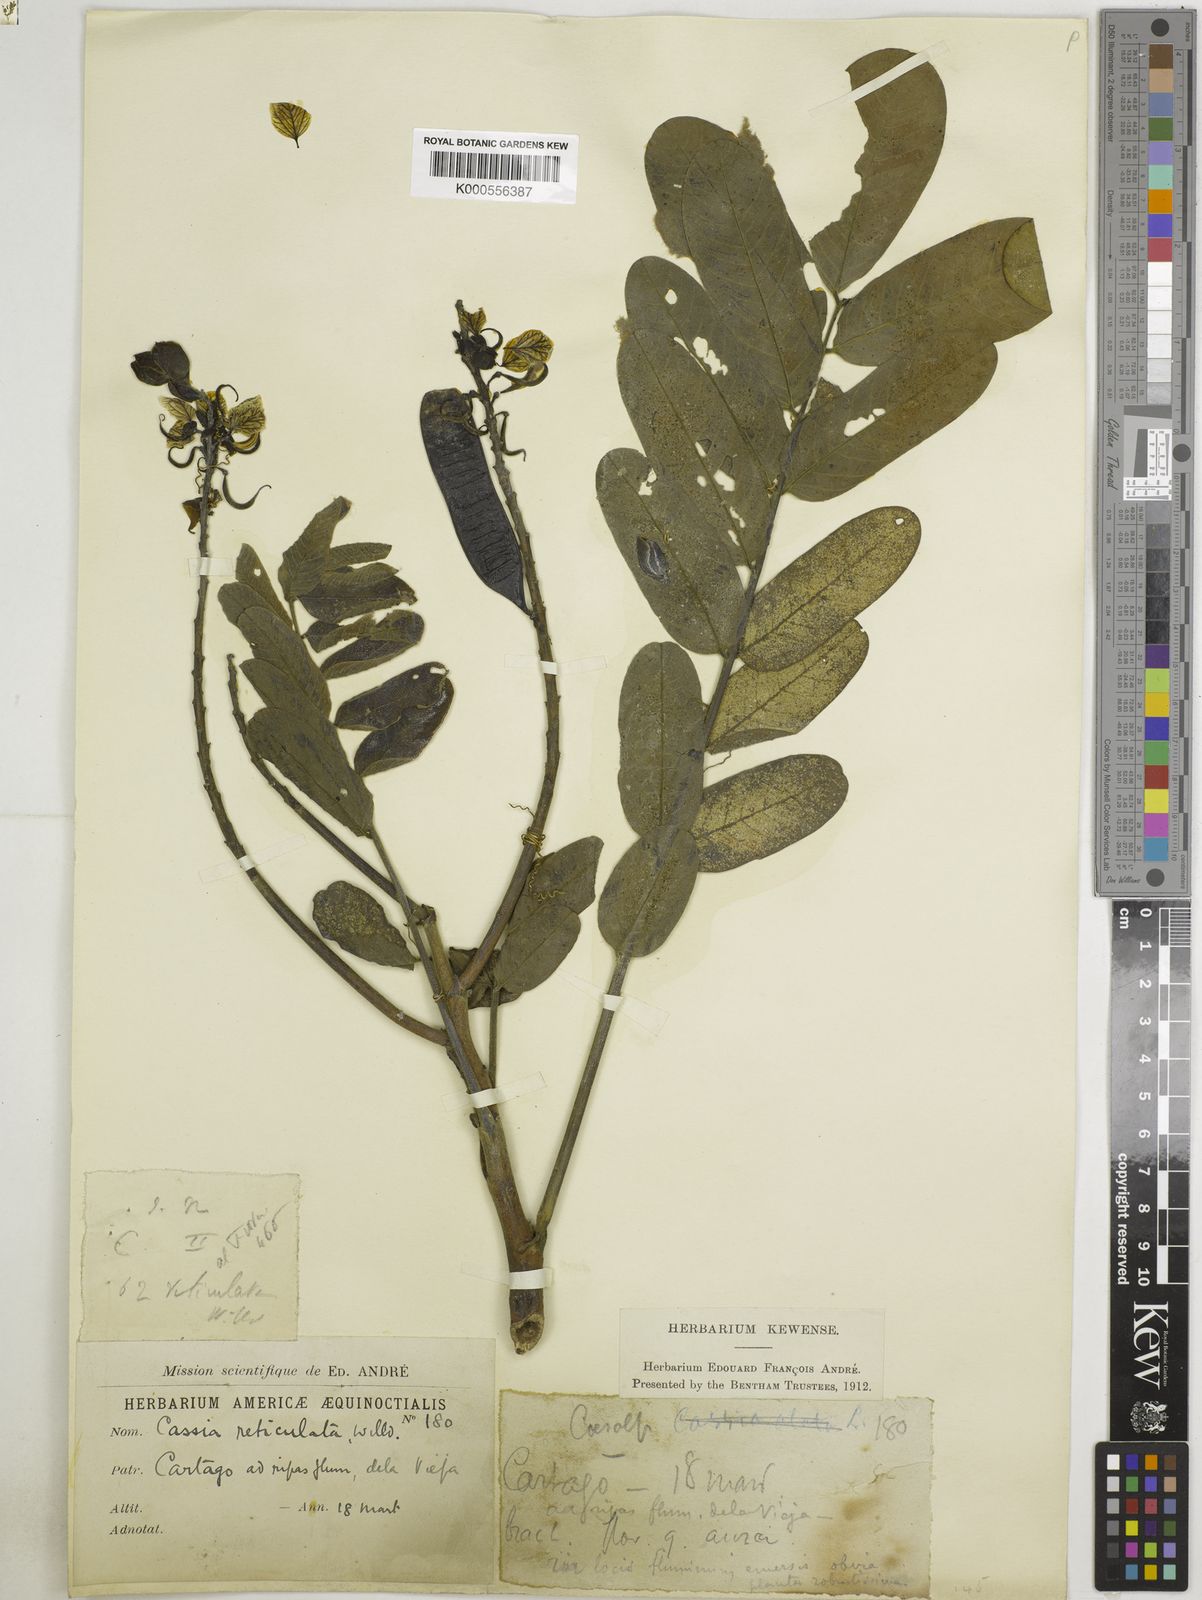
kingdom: Plantae
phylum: Tracheophyta
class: Magnoliopsida
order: Fabales
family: Fabaceae
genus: Senna
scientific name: Senna reticulata
